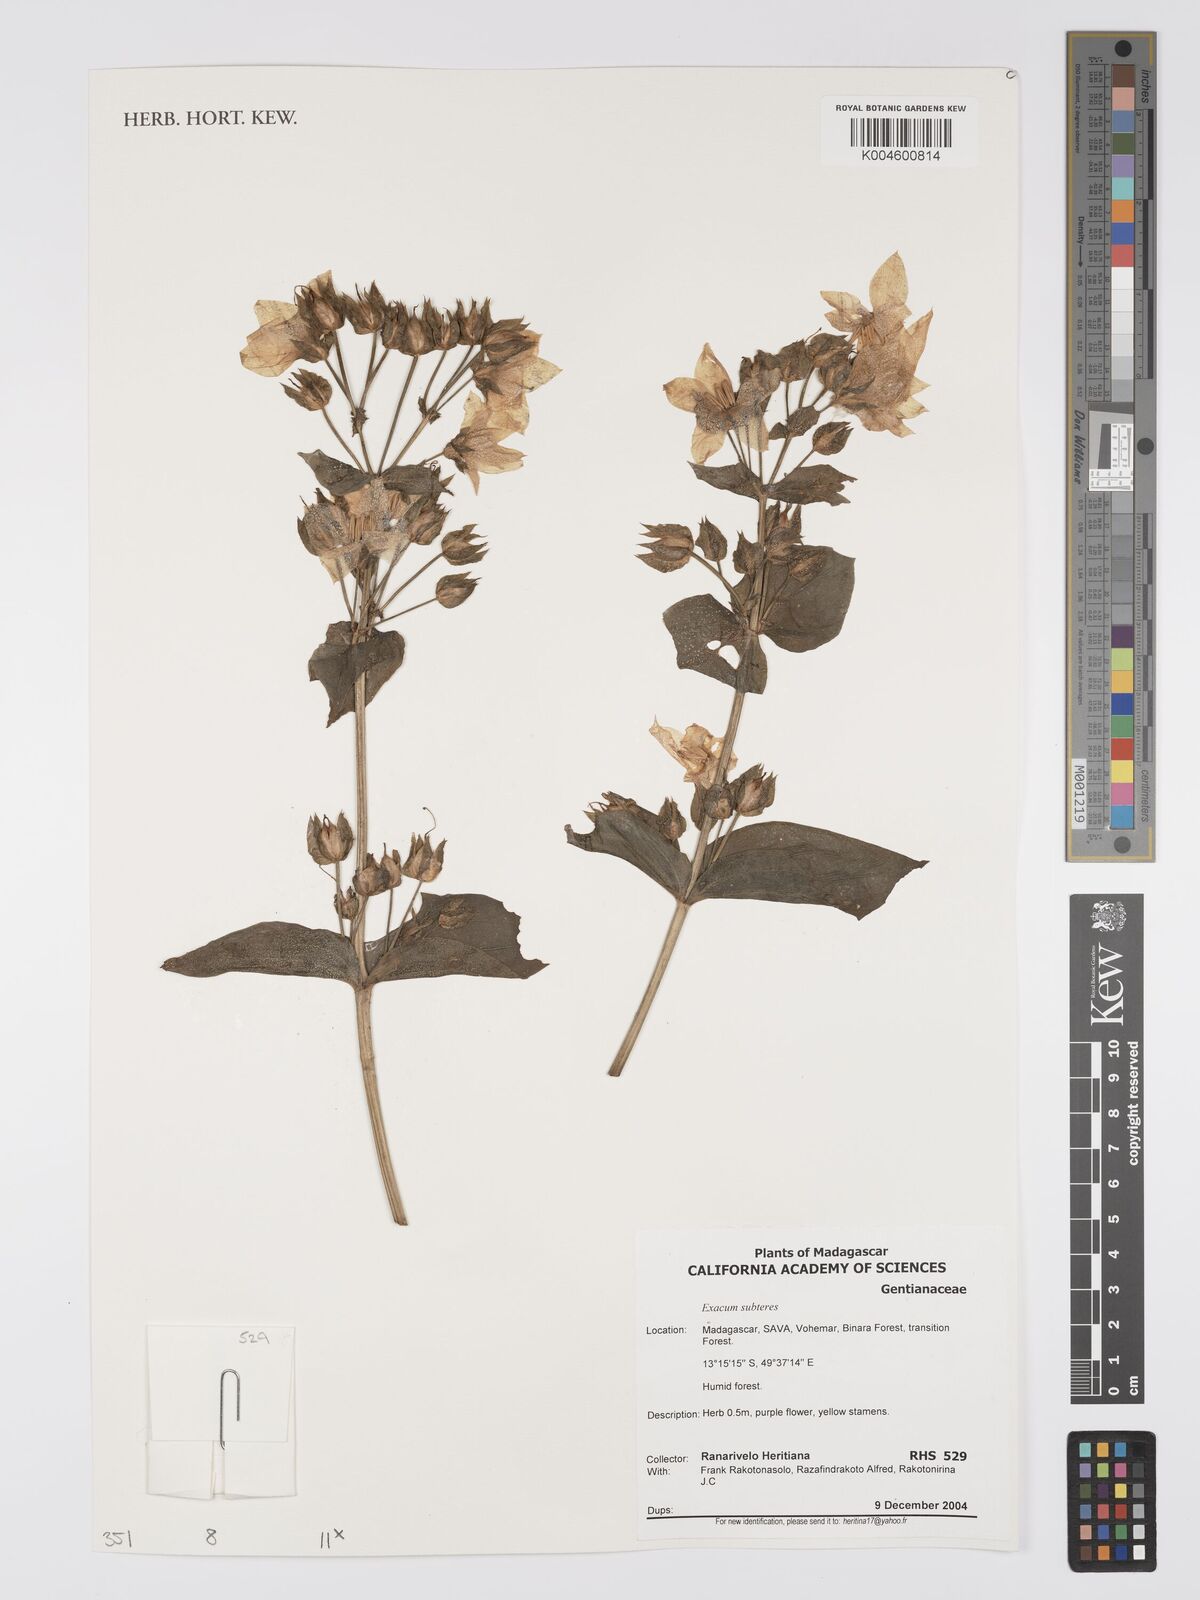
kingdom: Plantae
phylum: Tracheophyta
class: Magnoliopsida
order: Gentianales
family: Gentianaceae
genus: Exacum
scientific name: Exacum subteres
